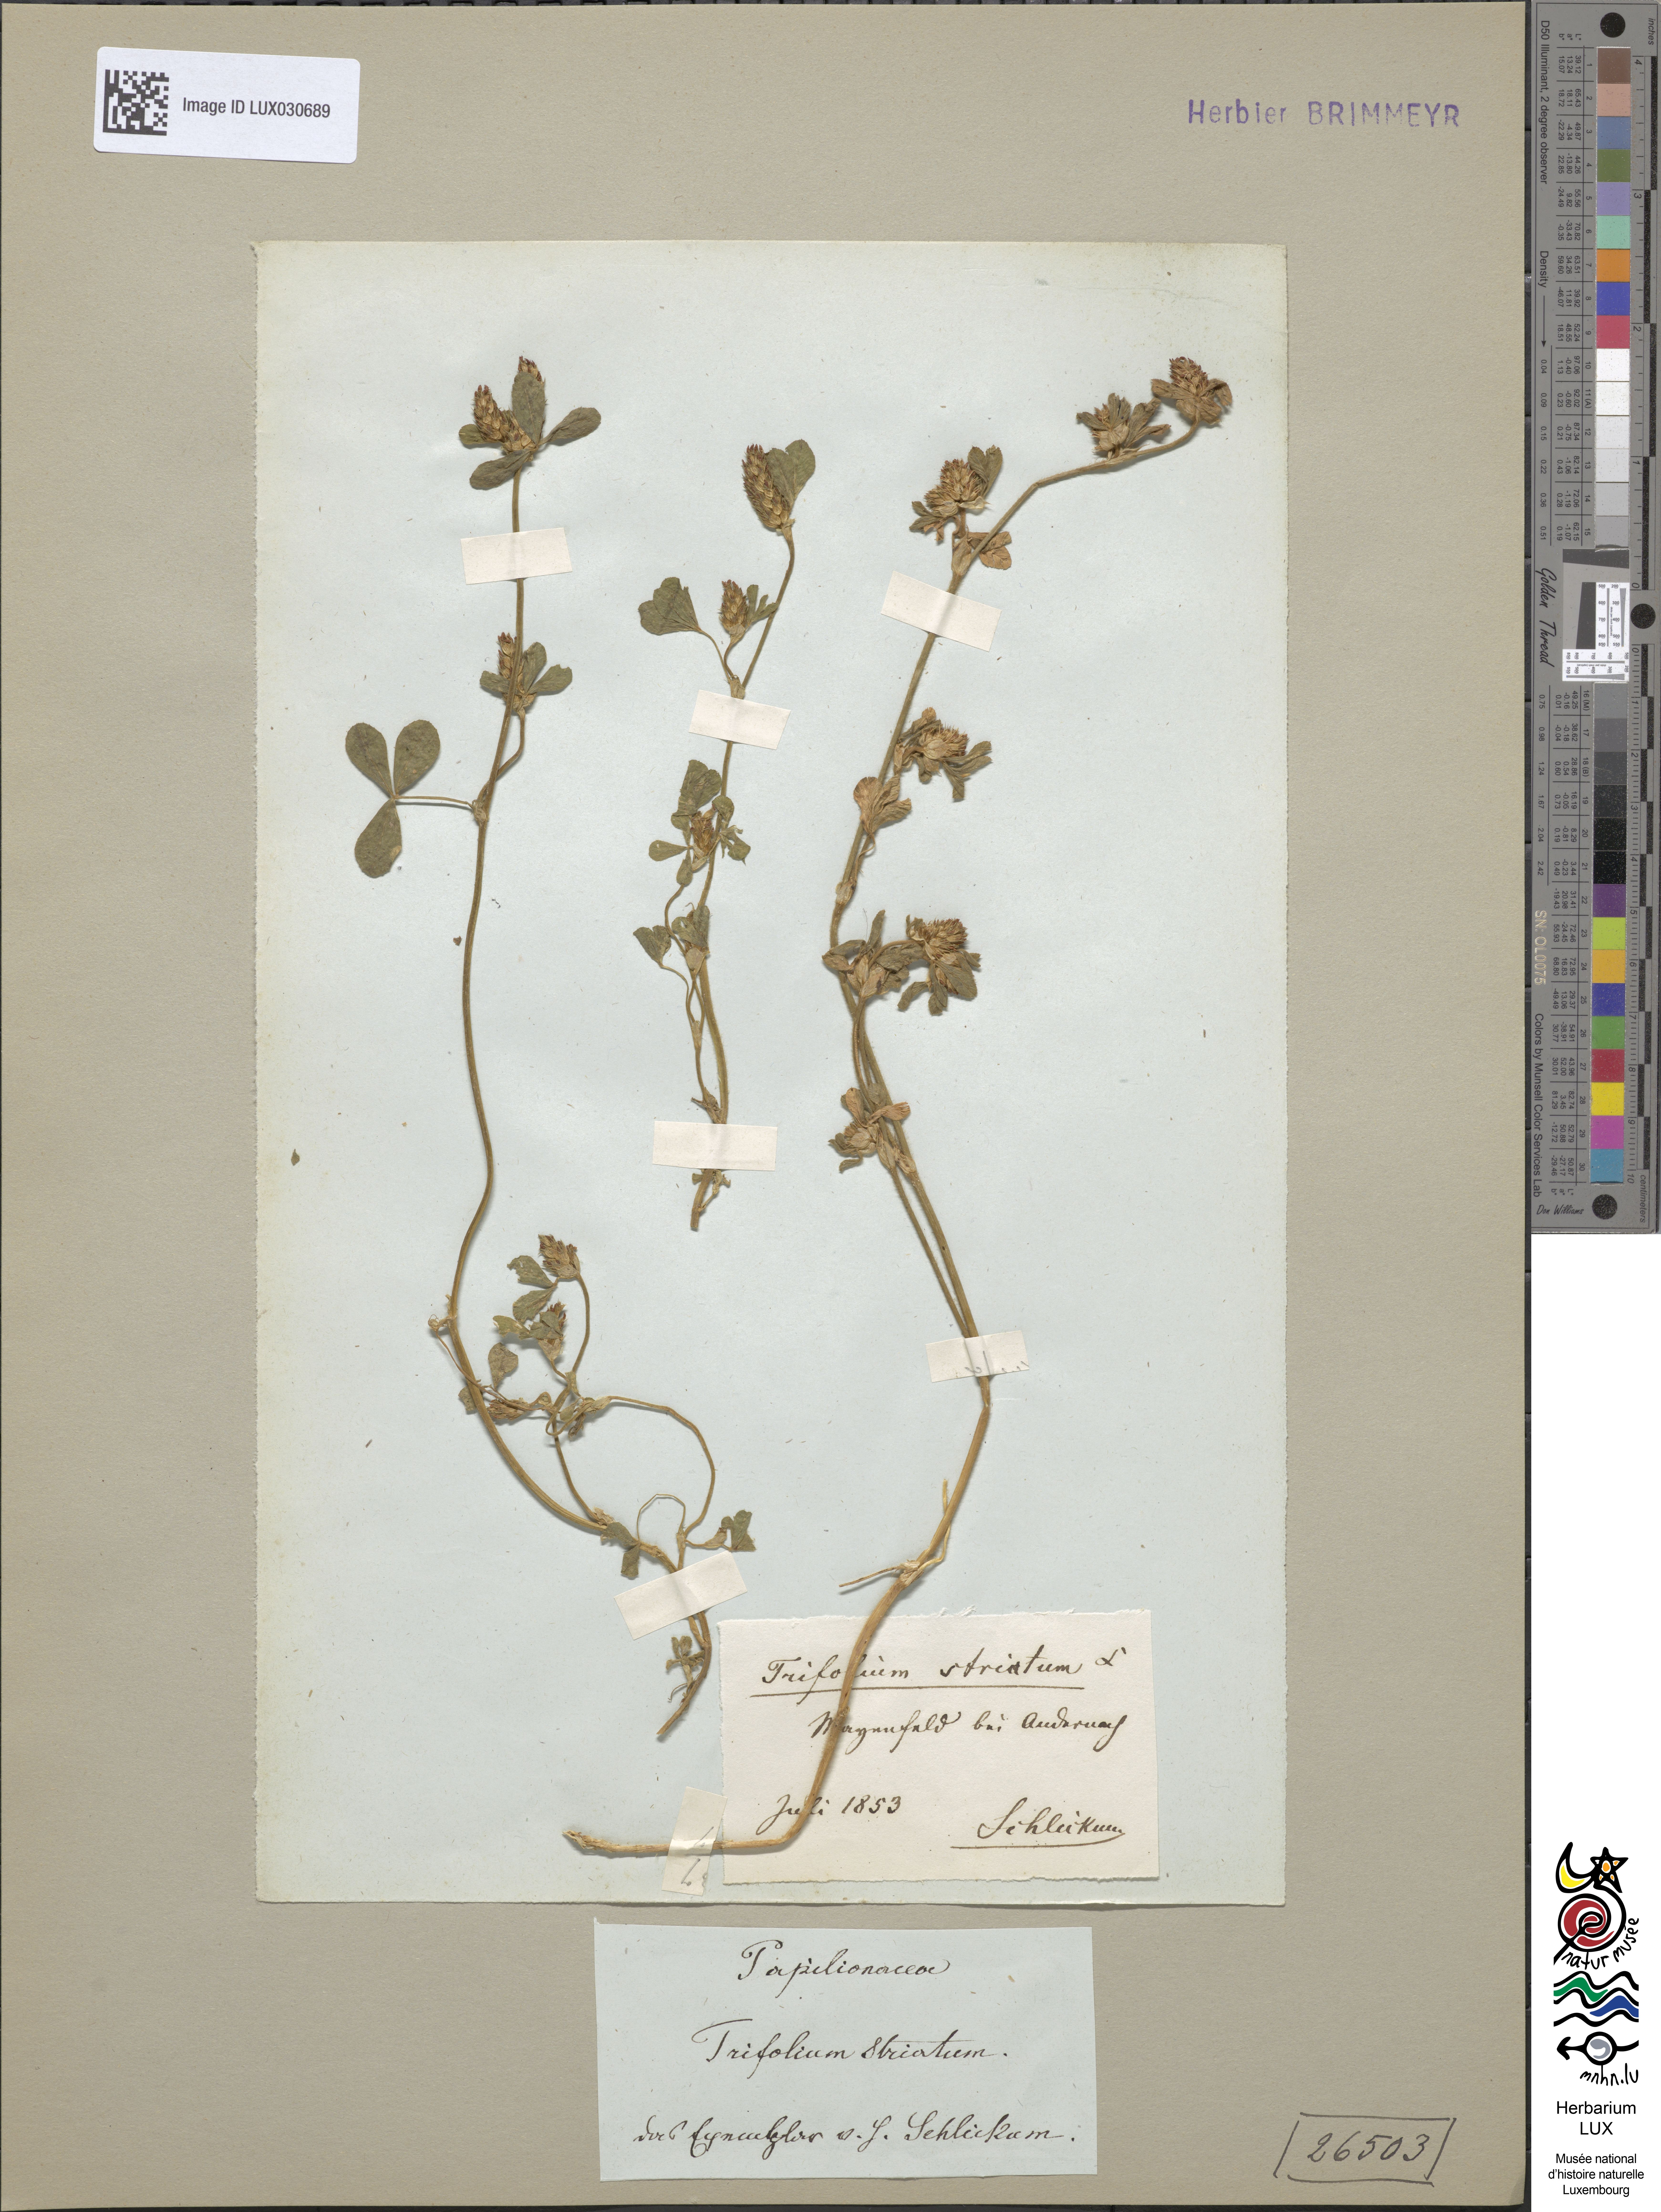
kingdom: Plantae
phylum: Tracheophyta
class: Magnoliopsida
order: Fabales
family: Fabaceae
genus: Trifolium
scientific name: Trifolium striatum
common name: Knotted clover
